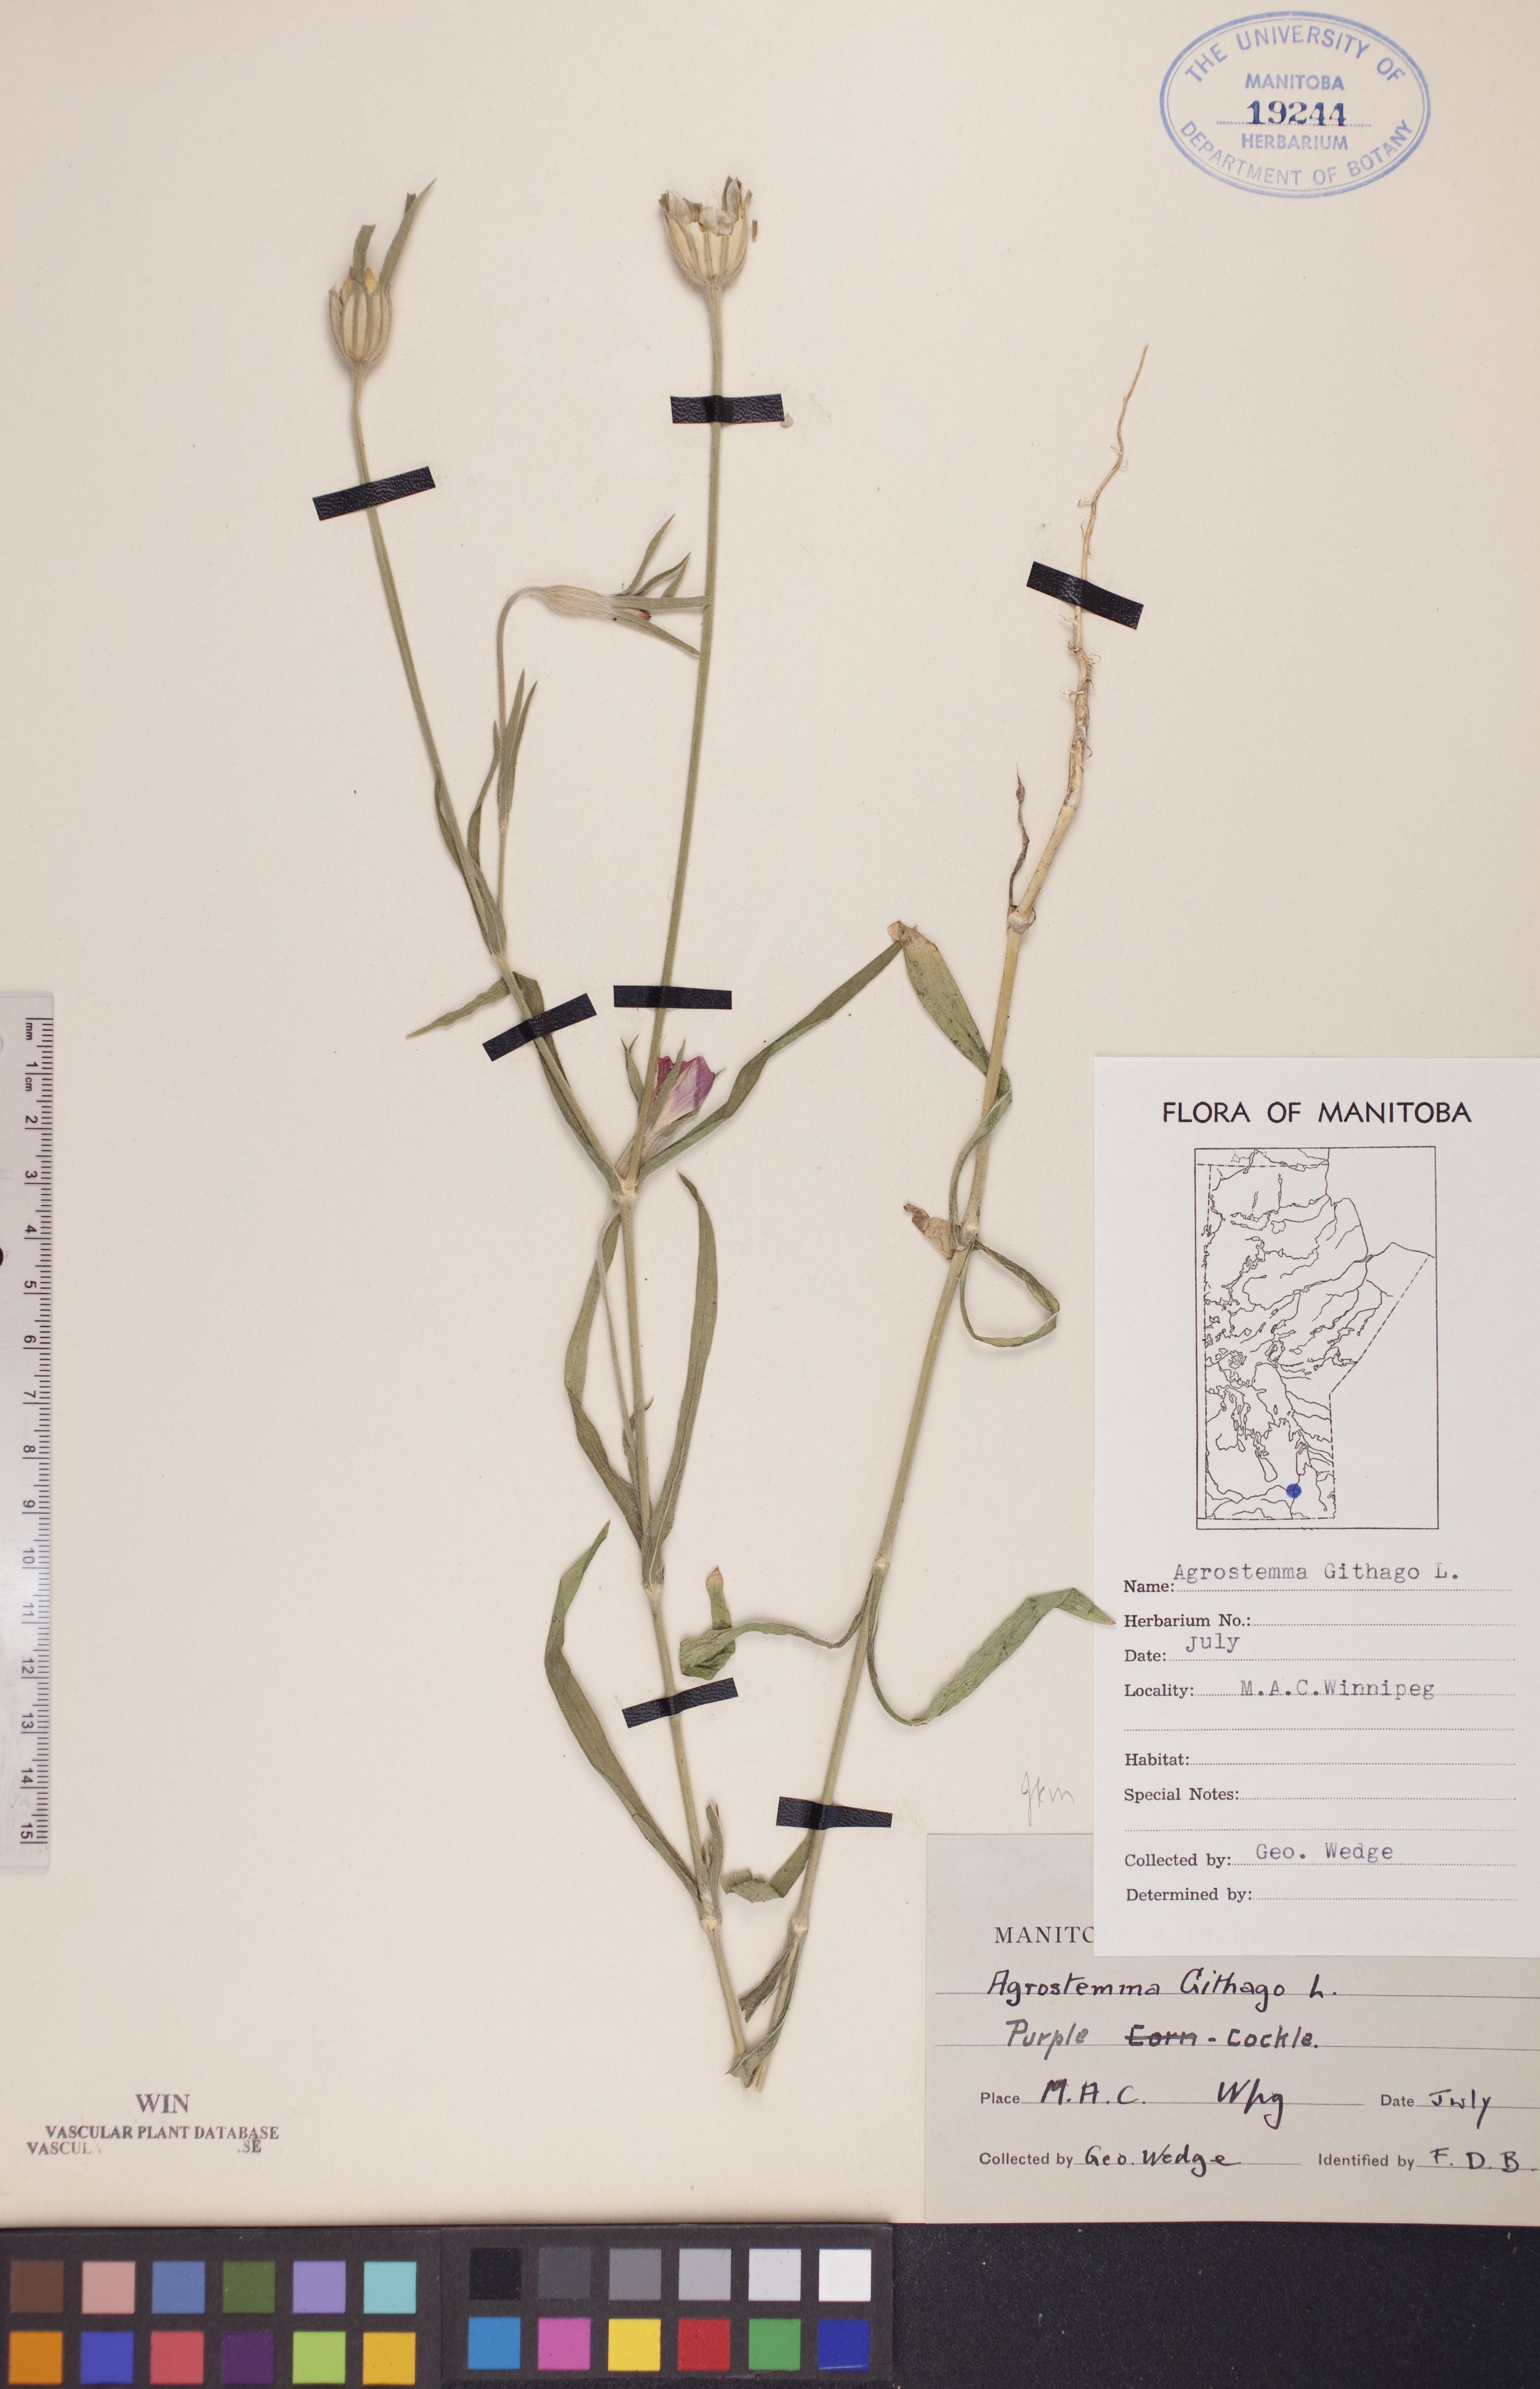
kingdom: Plantae
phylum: Tracheophyta
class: Magnoliopsida
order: Caryophyllales
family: Caryophyllaceae
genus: Agrostemma
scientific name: Agrostemma githago
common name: Common corncockle
